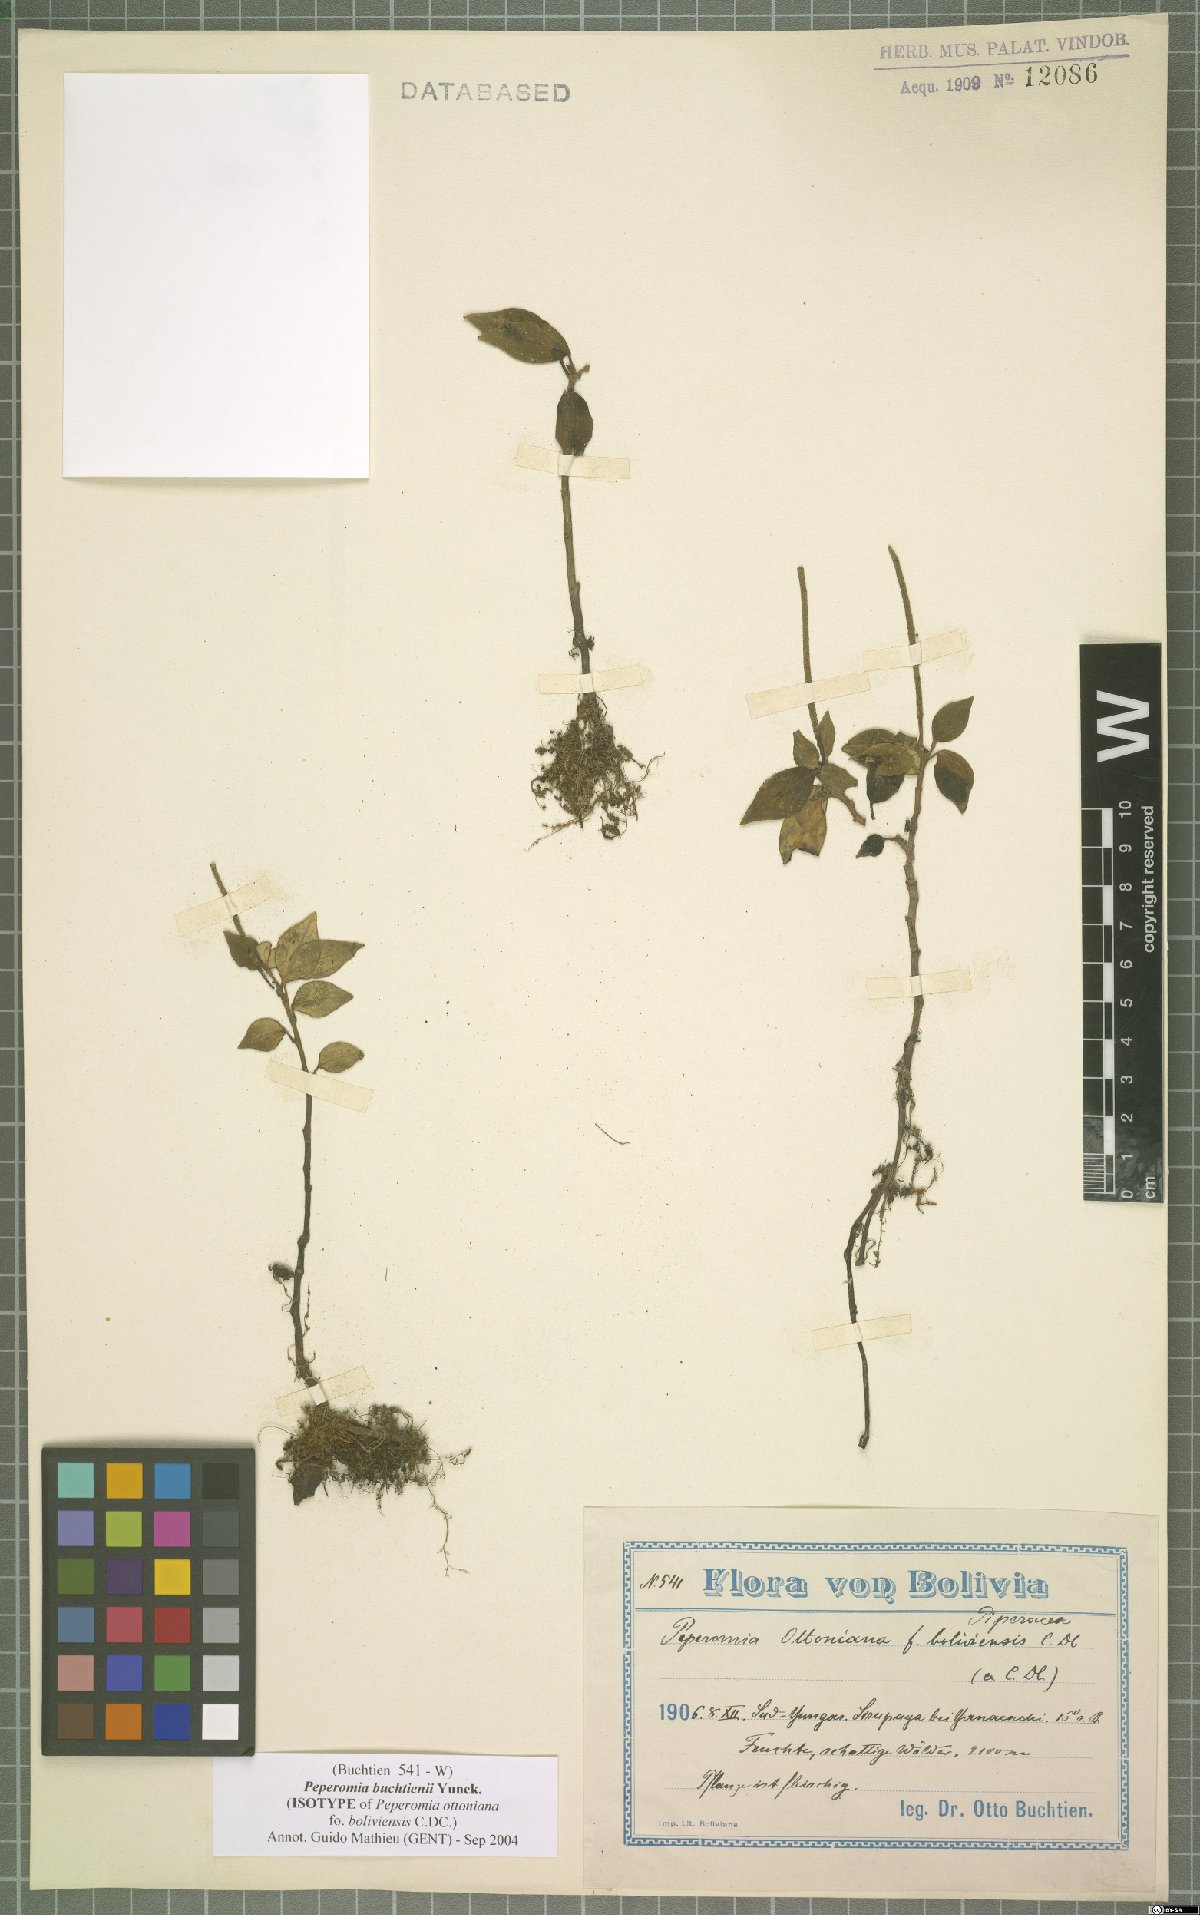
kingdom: Plantae
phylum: Tracheophyta
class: Magnoliopsida
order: Piperales
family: Piperaceae
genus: Peperomia
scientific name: Peperomia buchtienii
